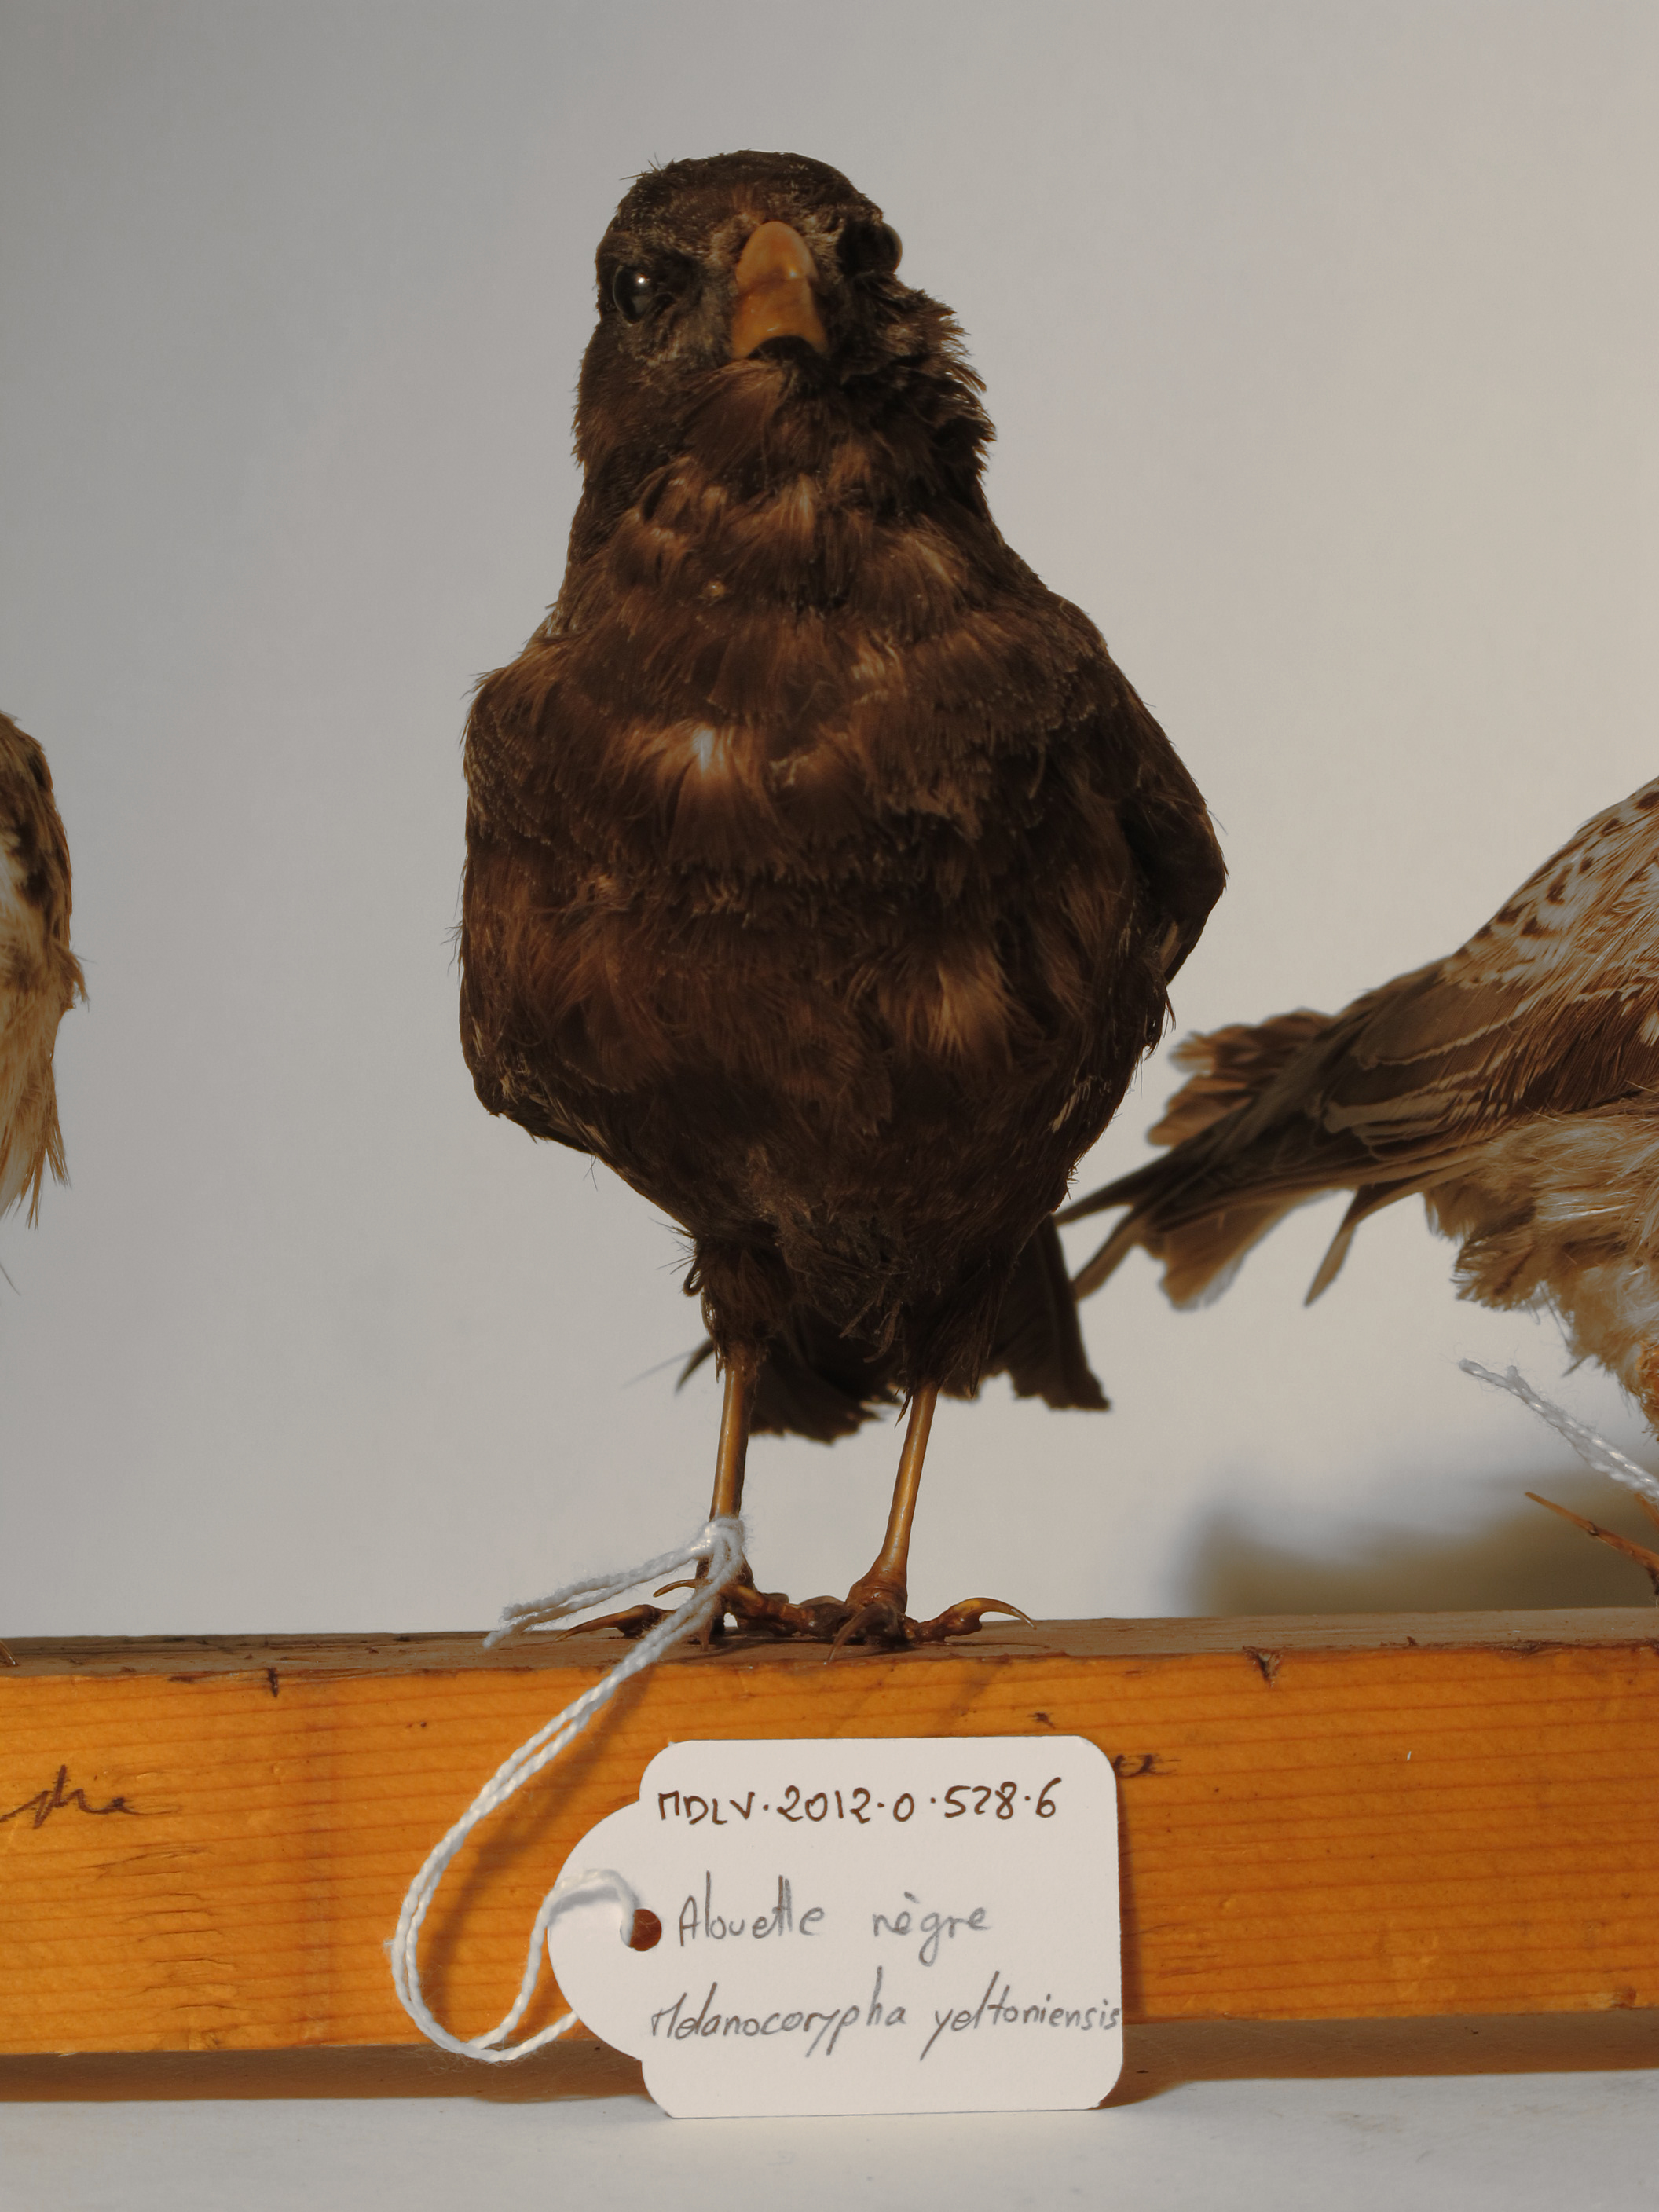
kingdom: Animalia
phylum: Chordata
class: Aves
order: Passeriformes
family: Alaudidae
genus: Melanocorypha
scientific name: Melanocorypha yeltoniensis
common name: Black Lark
